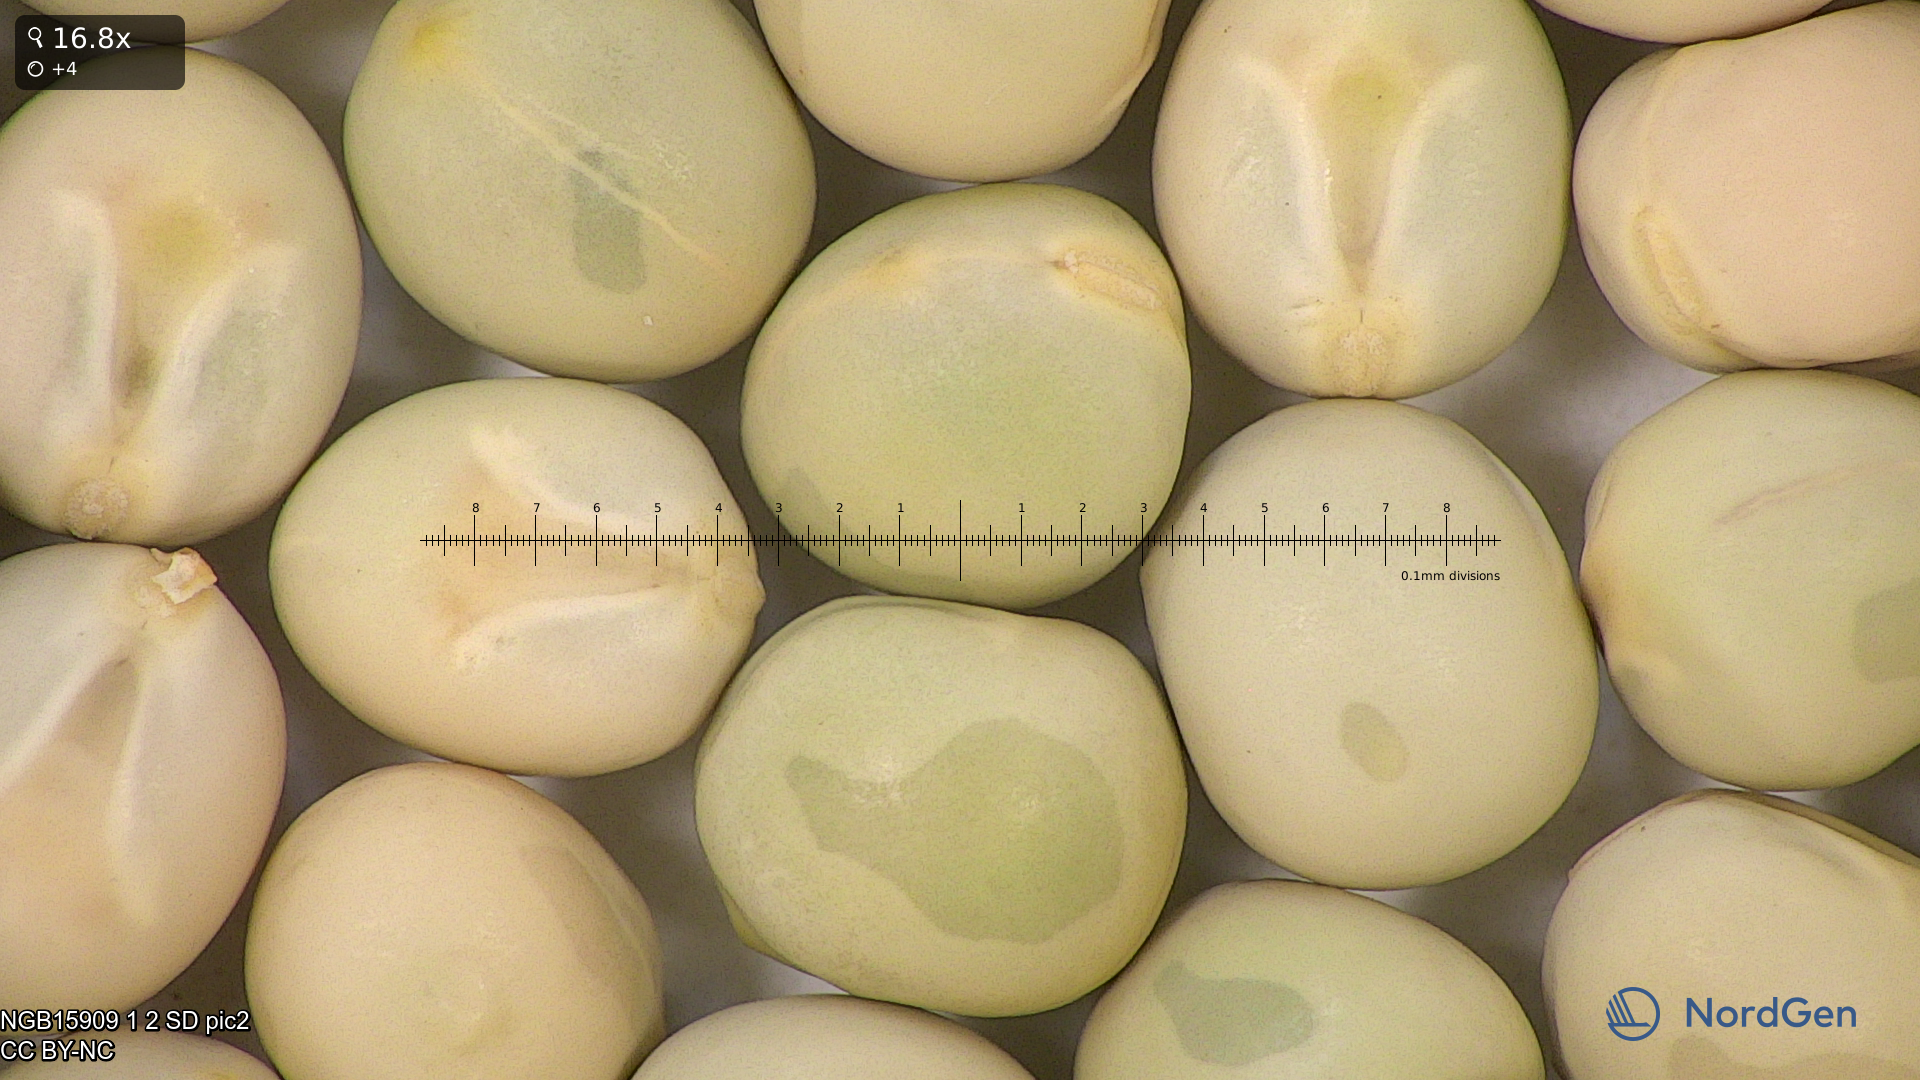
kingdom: Plantae
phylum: Tracheophyta
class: Magnoliopsida
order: Fabales
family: Fabaceae
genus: Lathyrus
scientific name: Lathyrus oleraceus
